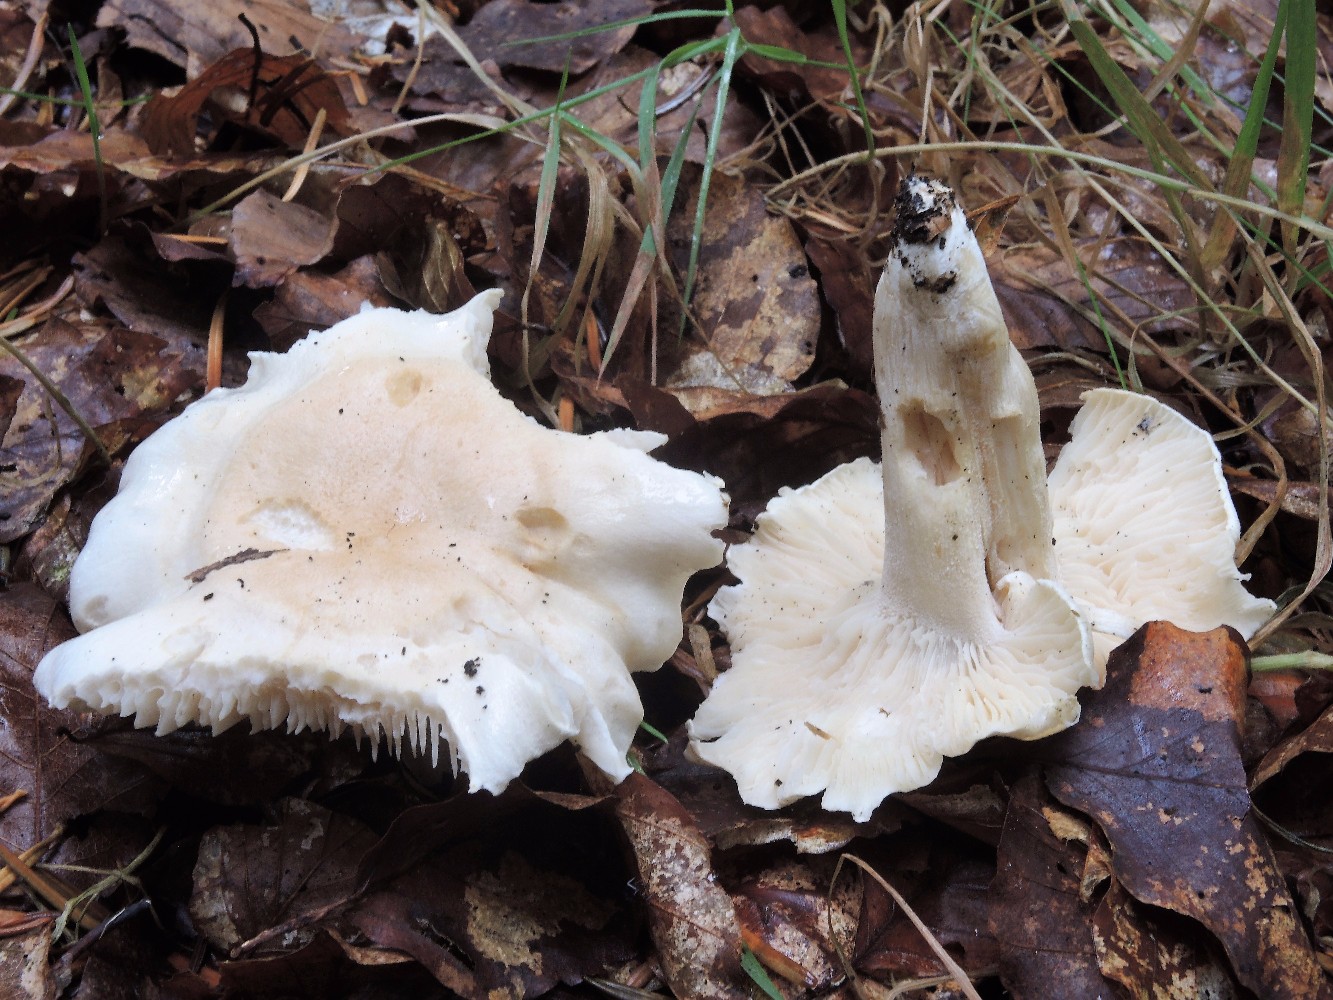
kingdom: Fungi
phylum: Basidiomycota
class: Agaricomycetes
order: Agaricales
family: Hygrophoraceae
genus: Hygrophorus
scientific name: Hygrophorus penarius
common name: spiselig sneglehat
